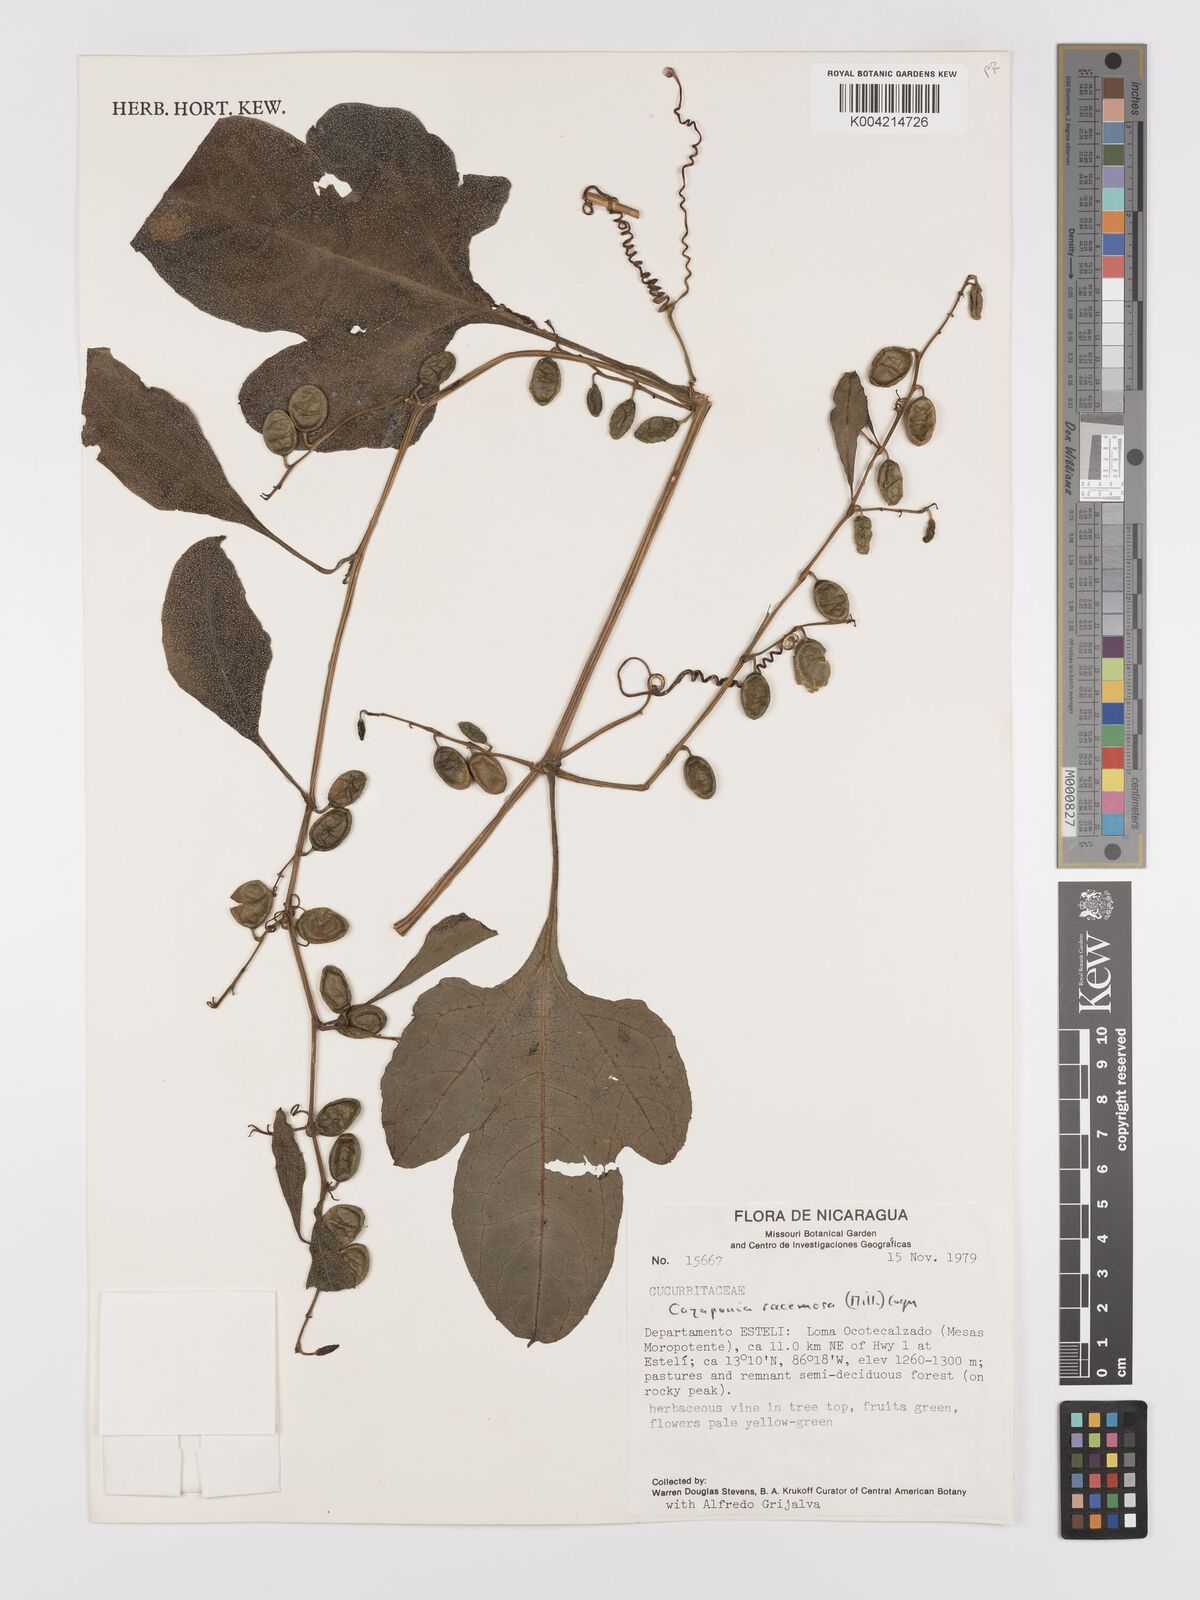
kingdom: Plantae
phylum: Tracheophyta
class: Magnoliopsida
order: Cucurbitales
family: Cucurbitaceae
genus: Cayaponia
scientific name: Cayaponia racemosa
